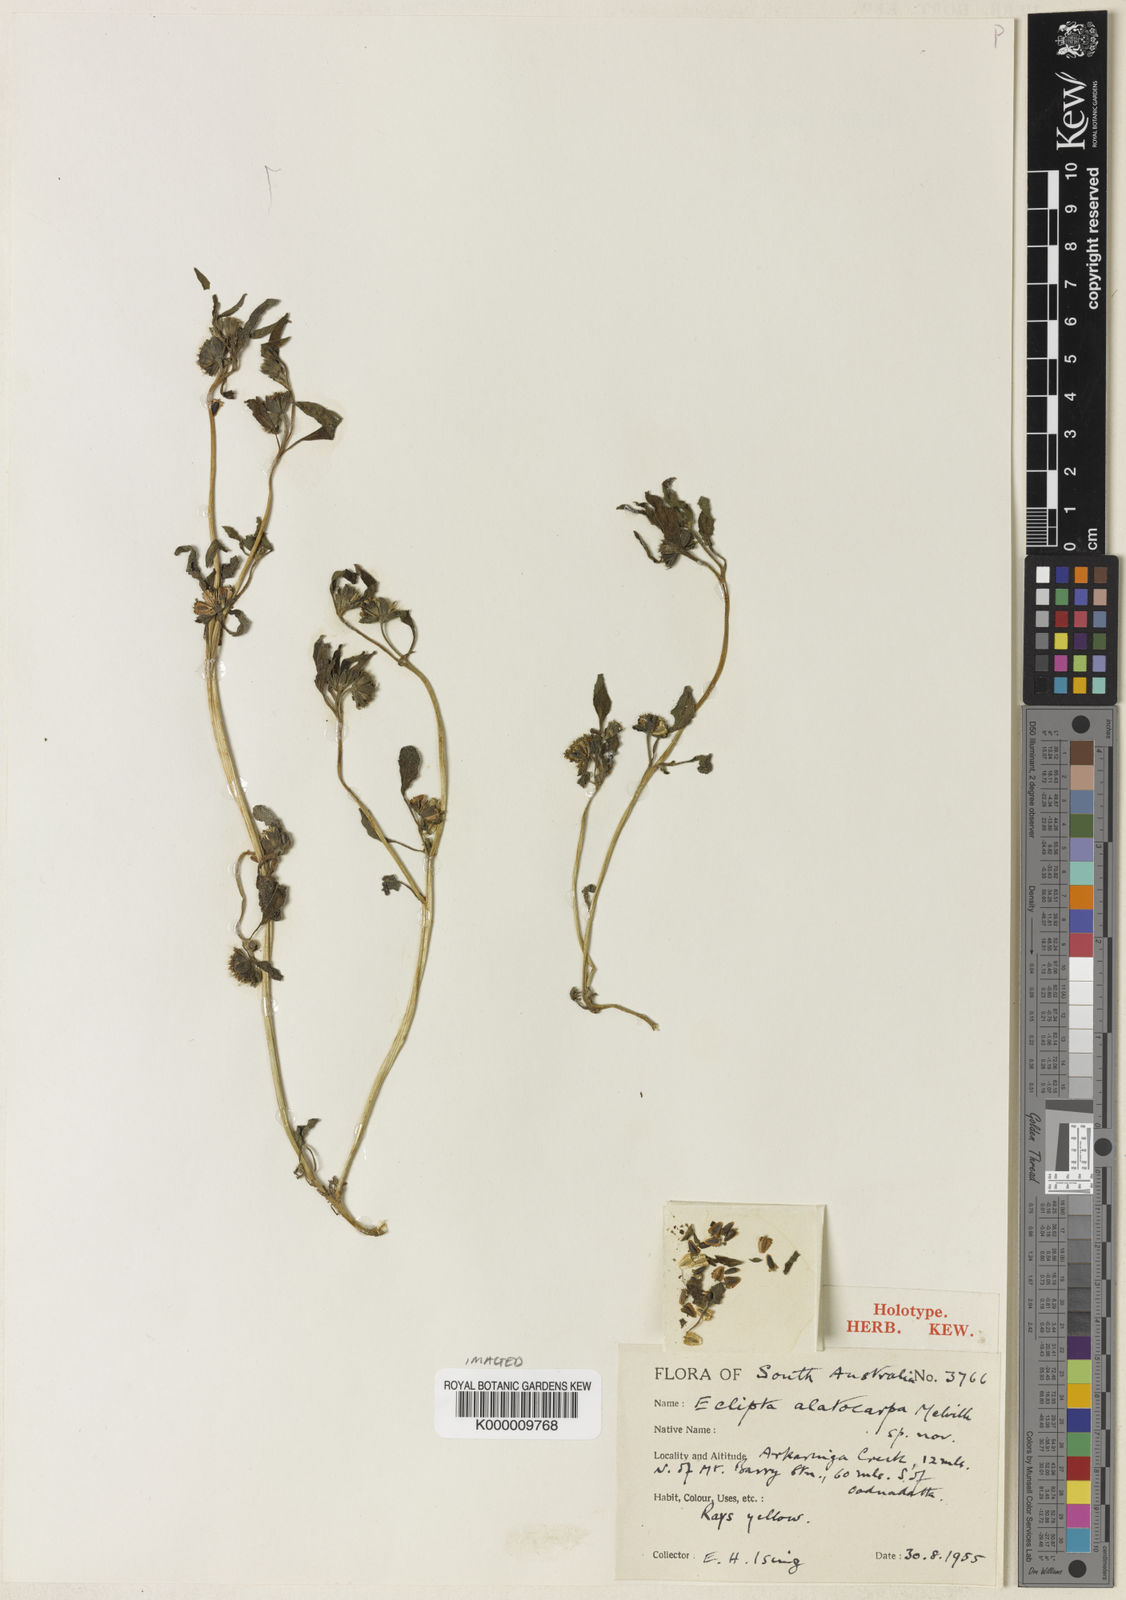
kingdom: Plantae
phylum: Tracheophyta
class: Magnoliopsida
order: Asterales
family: Asteraceae
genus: Eclipta
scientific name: Eclipta alatocarpa
